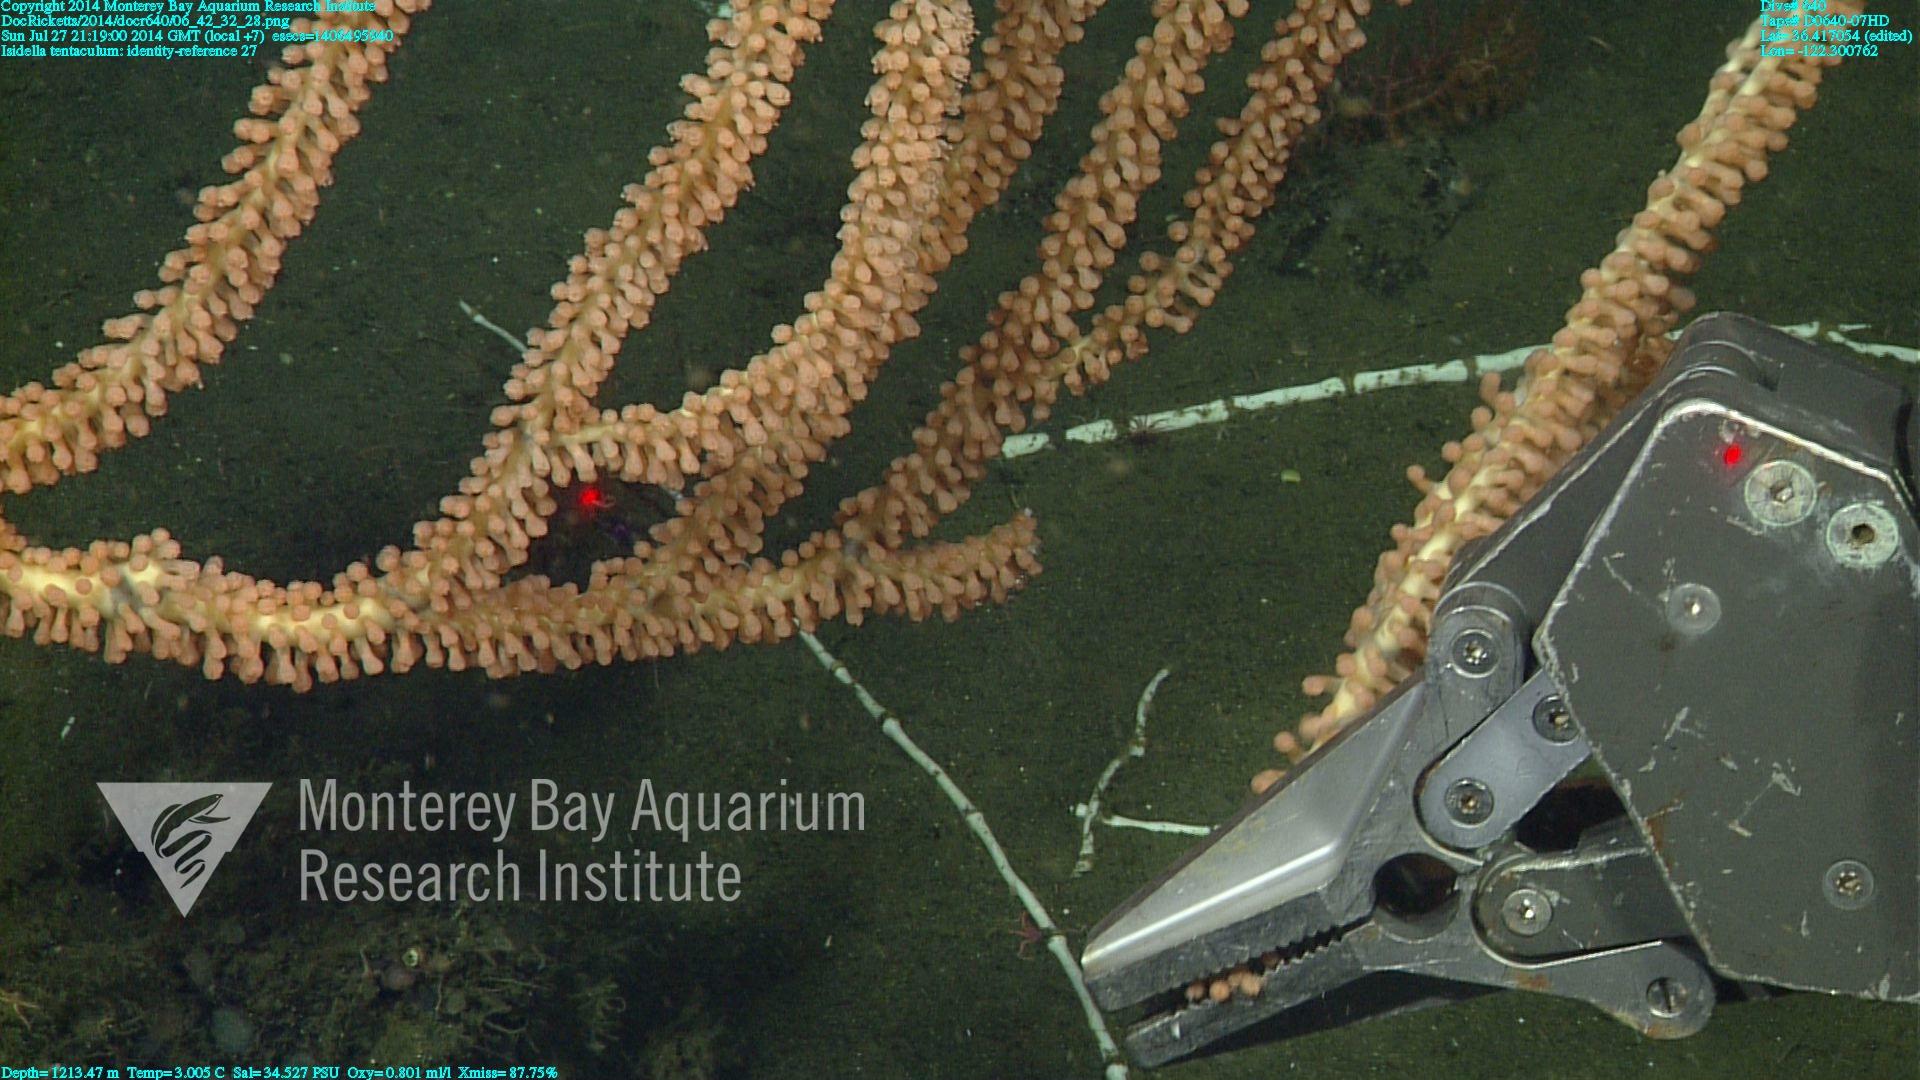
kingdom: Animalia
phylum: Cnidaria
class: Anthozoa
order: Scleralcyonacea
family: Keratoisididae
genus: Isidella
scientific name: Isidella tentaculum
